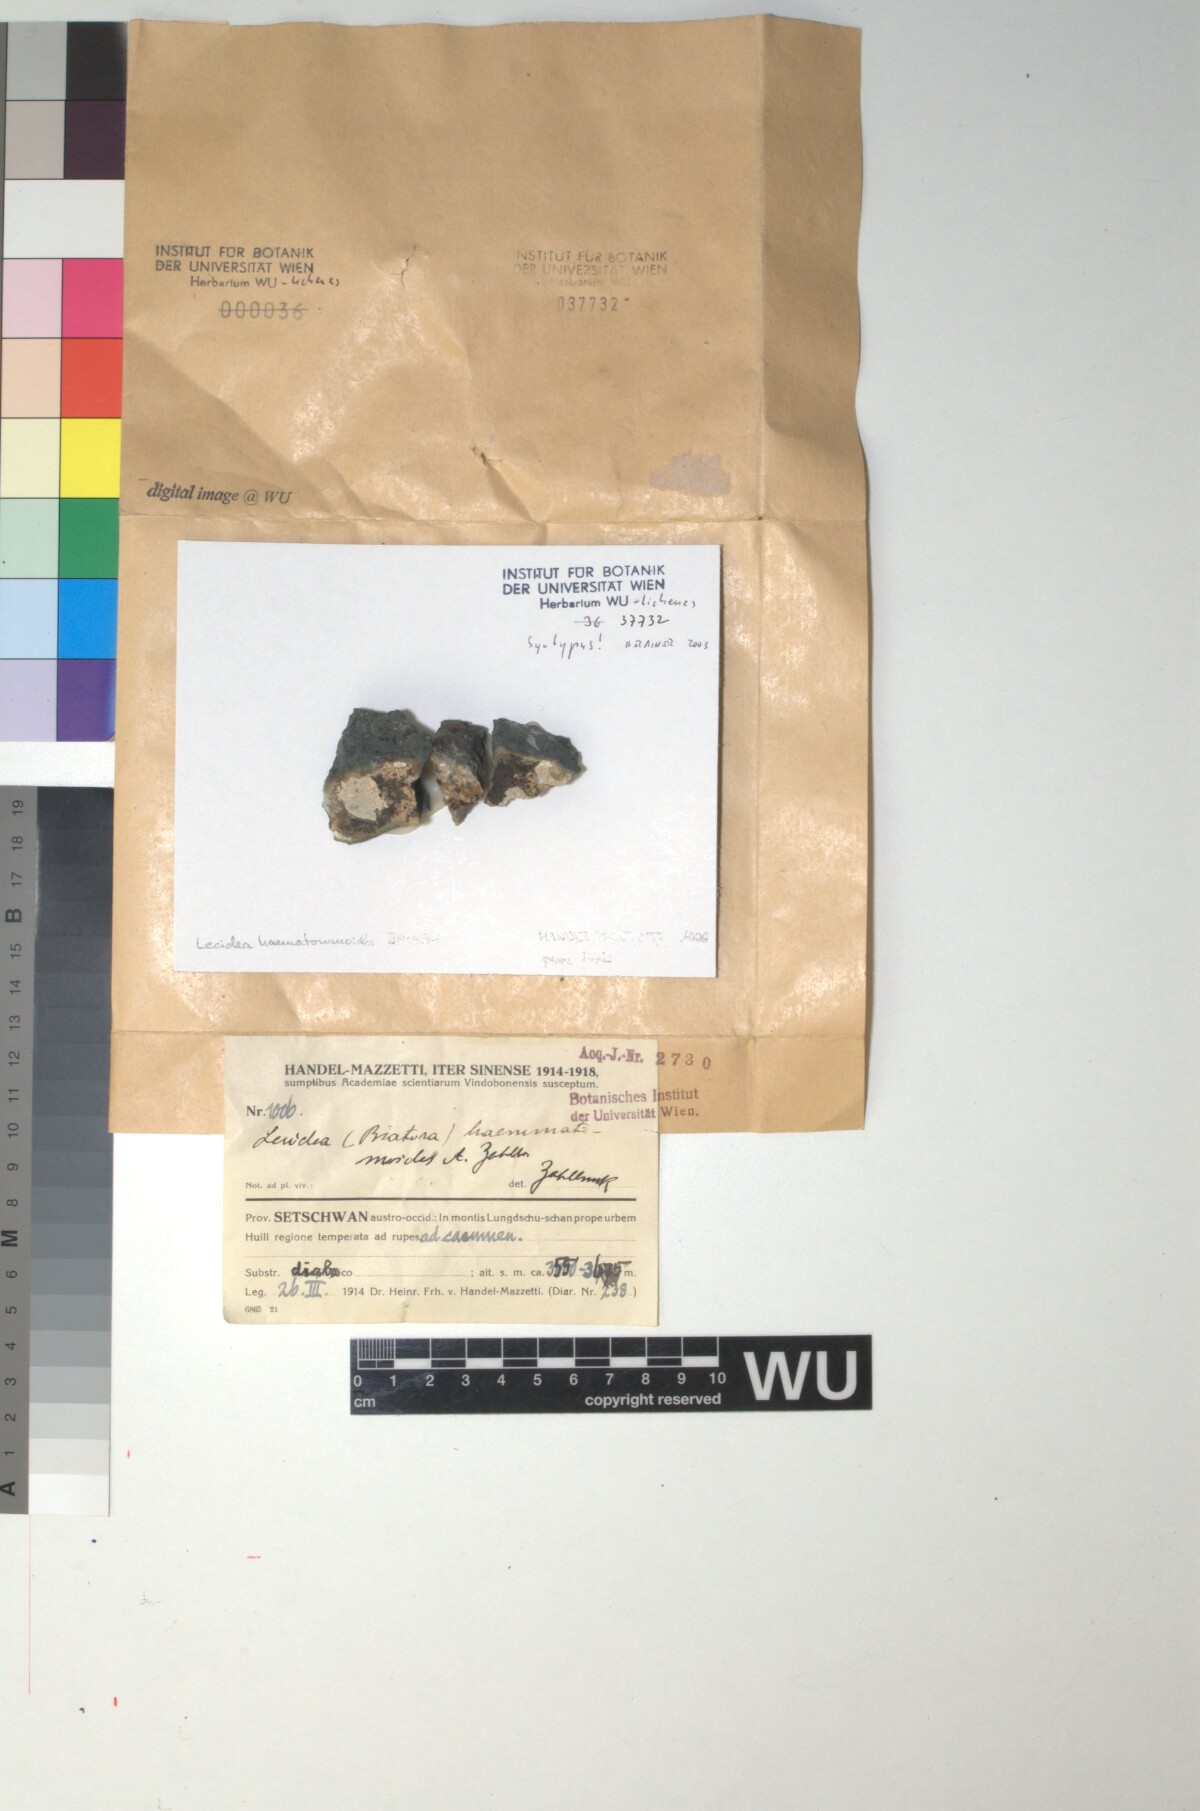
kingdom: Fungi
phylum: Ascomycota
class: Lecanoromycetes
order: Lecanorales
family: Ramboldiaceae
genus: Ramboldia
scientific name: Ramboldia griseococcinea
